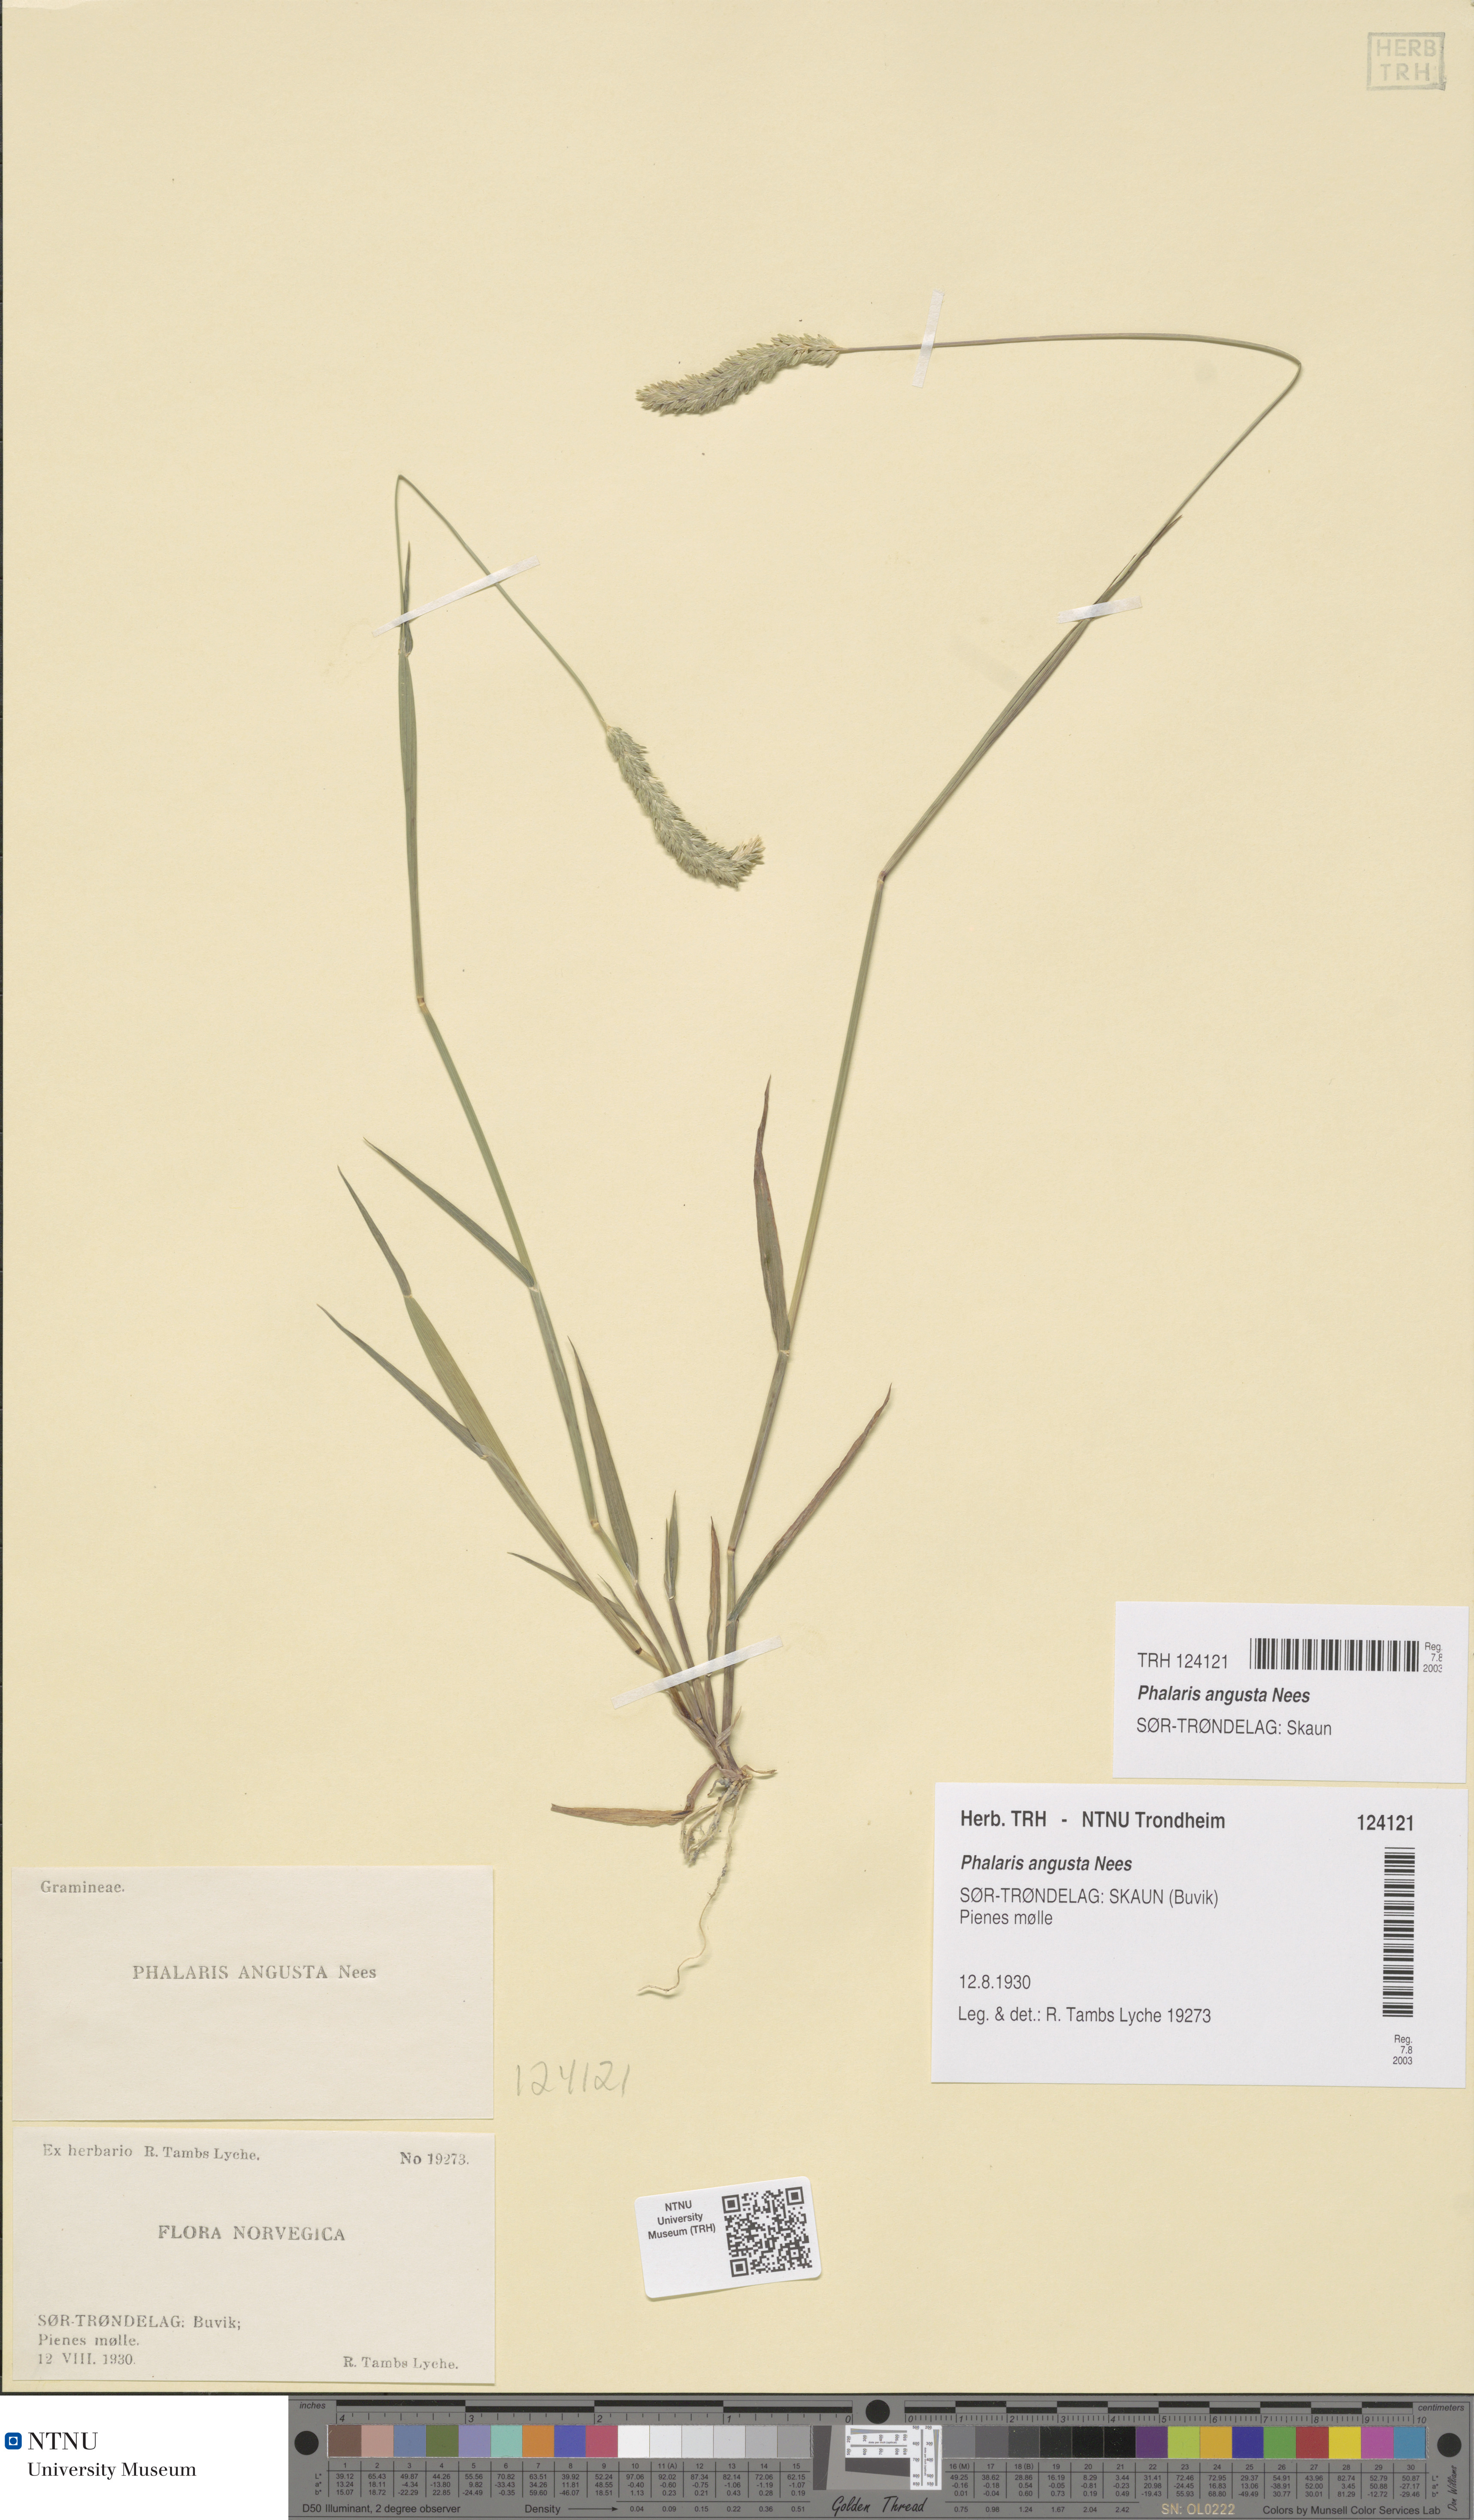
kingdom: Plantae
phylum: Tracheophyta
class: Liliopsida
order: Poales
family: Poaceae
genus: Phalaris
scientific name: Phalaris angusta
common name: Narrow canary grass
